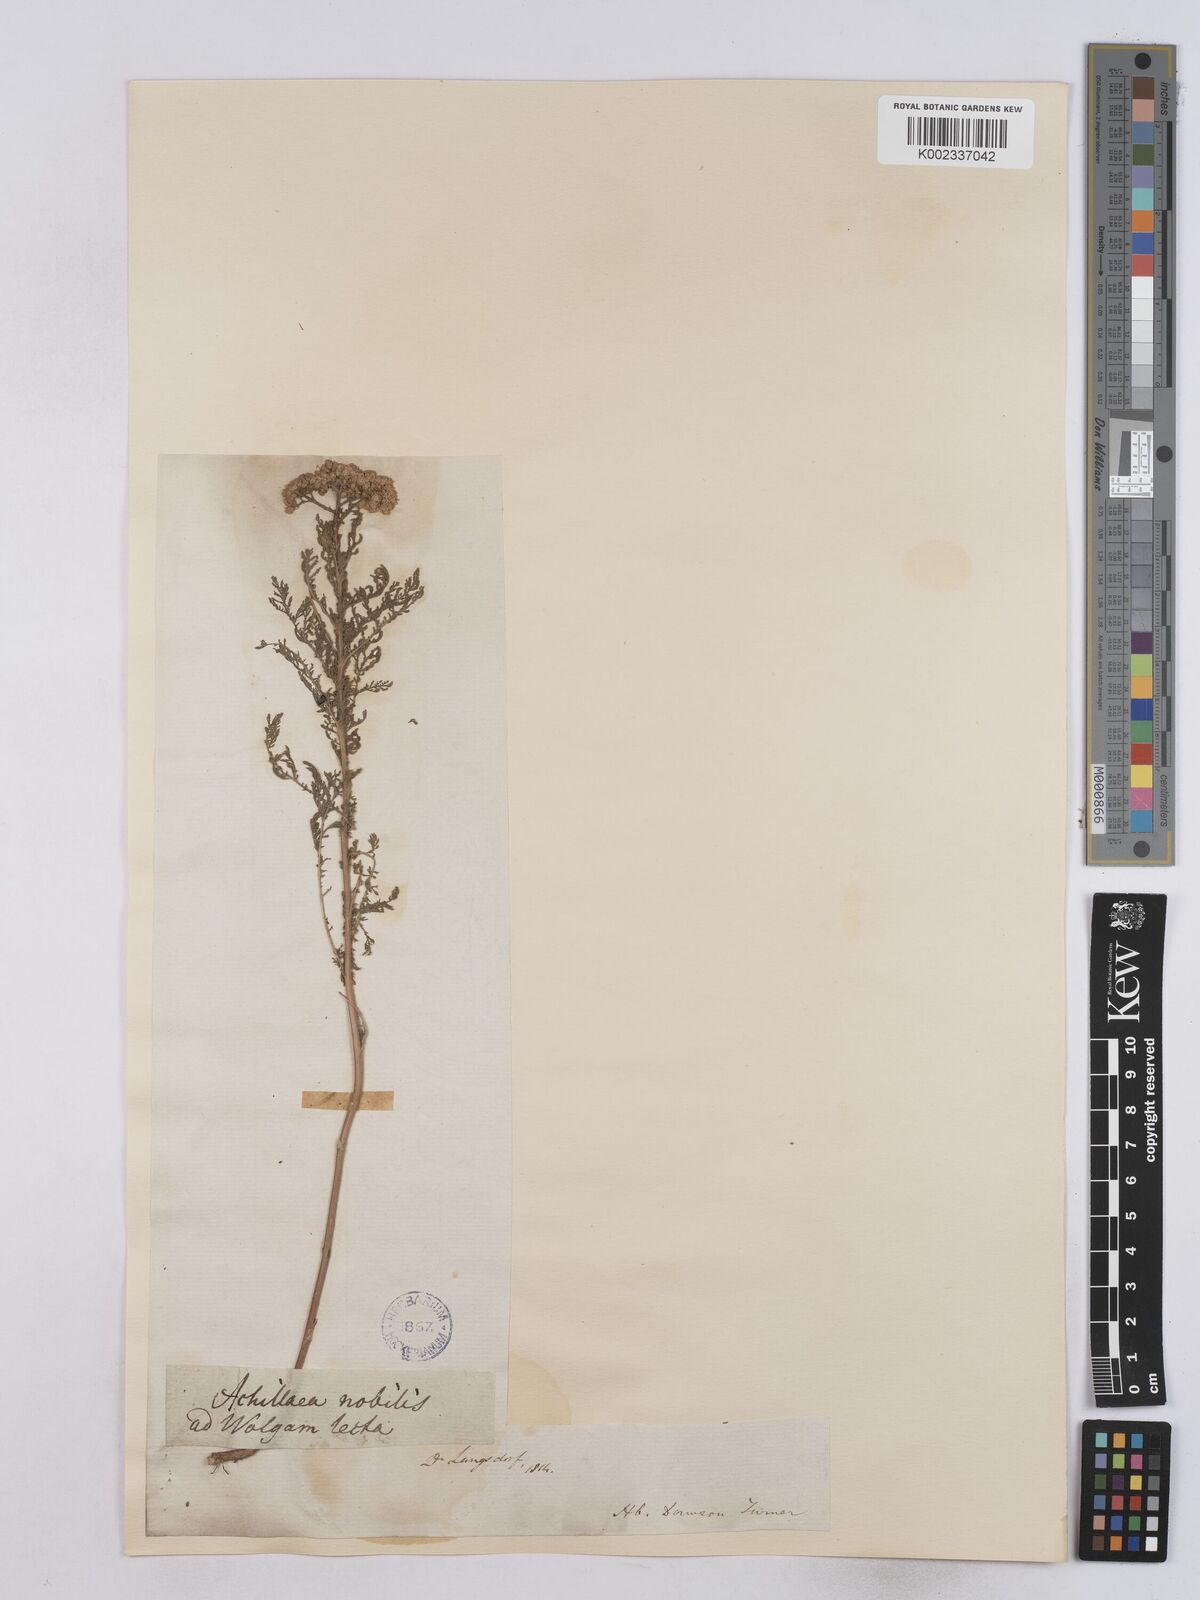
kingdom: Plantae
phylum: Tracheophyta
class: Magnoliopsida
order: Asterales
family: Asteraceae
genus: Achillea
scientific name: Achillea nobilis
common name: Noble yarrow
